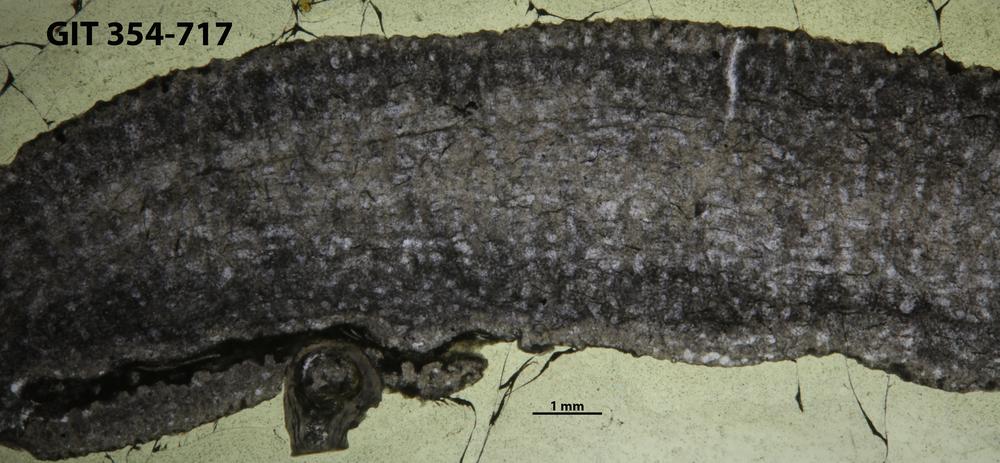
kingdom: Animalia
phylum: Porifera
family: Actinostromatidae
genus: Plectostroma
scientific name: Plectostroma
